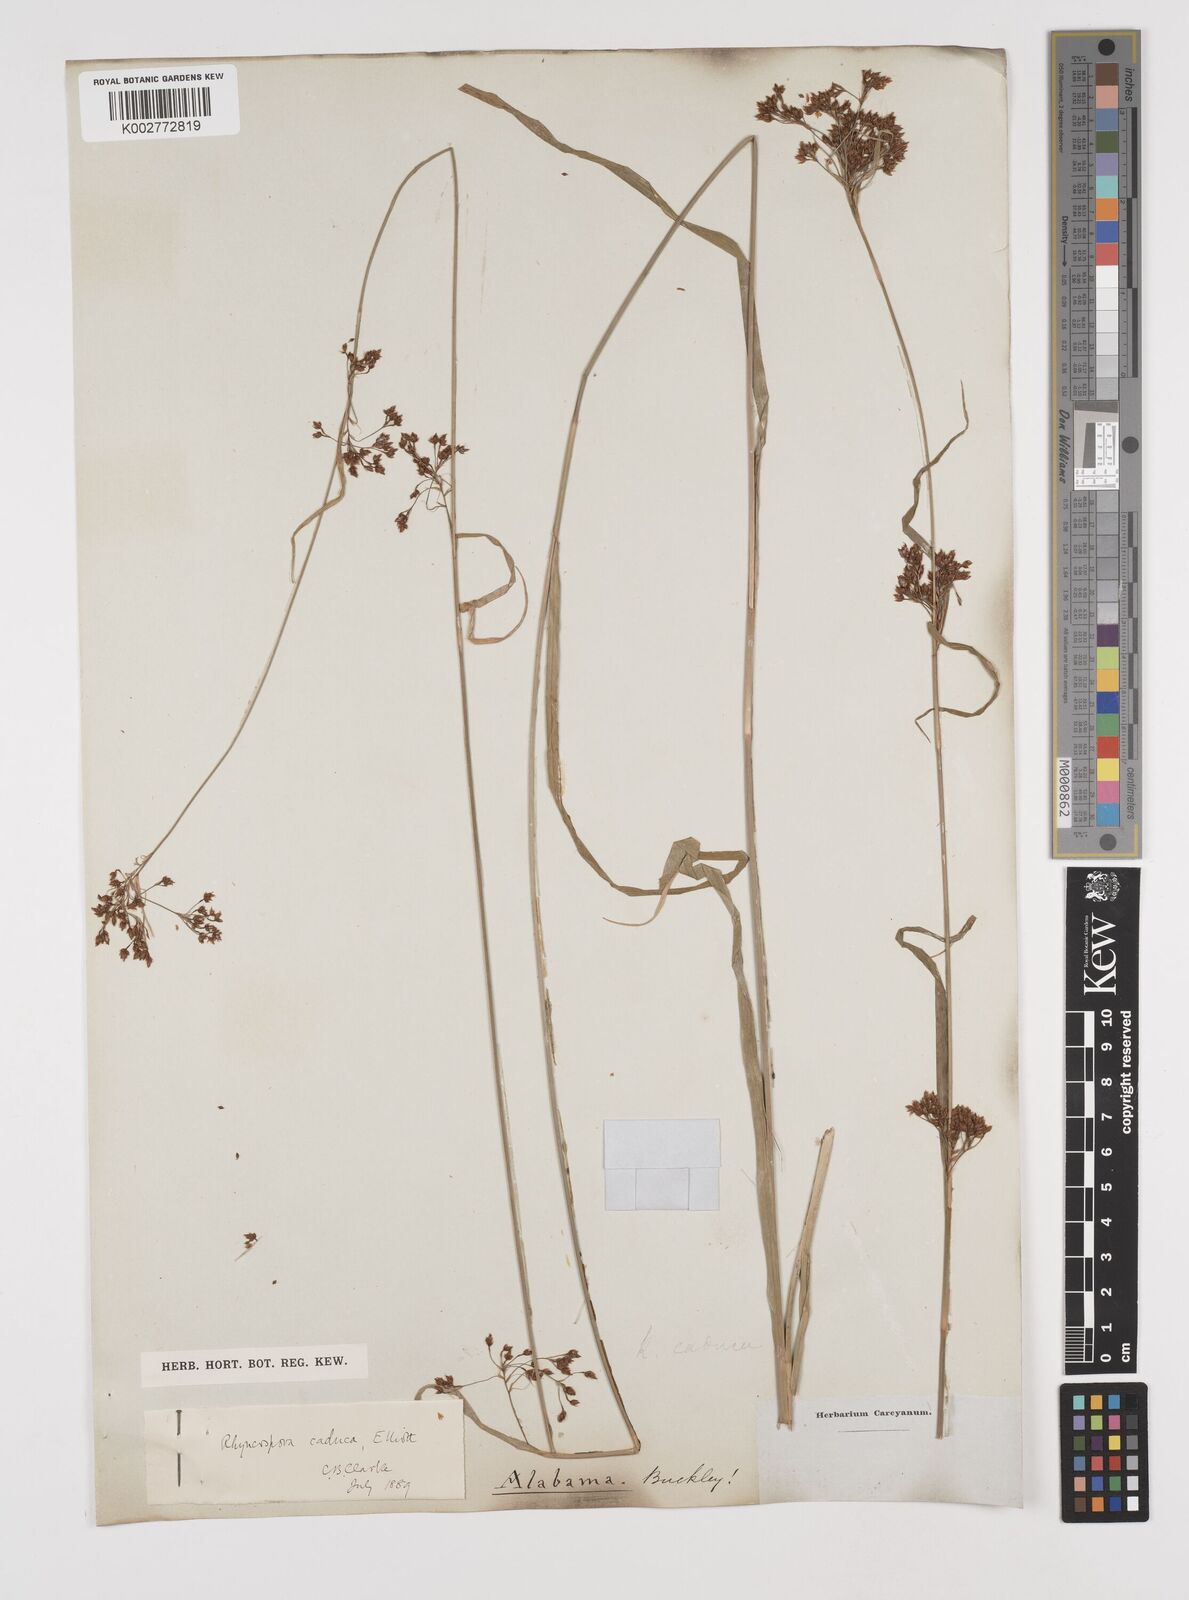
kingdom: Plantae
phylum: Tracheophyta
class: Liliopsida
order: Poales
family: Cyperaceae
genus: Rhynchospora
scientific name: Rhynchospora caduca
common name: Anglestem beaksedge
